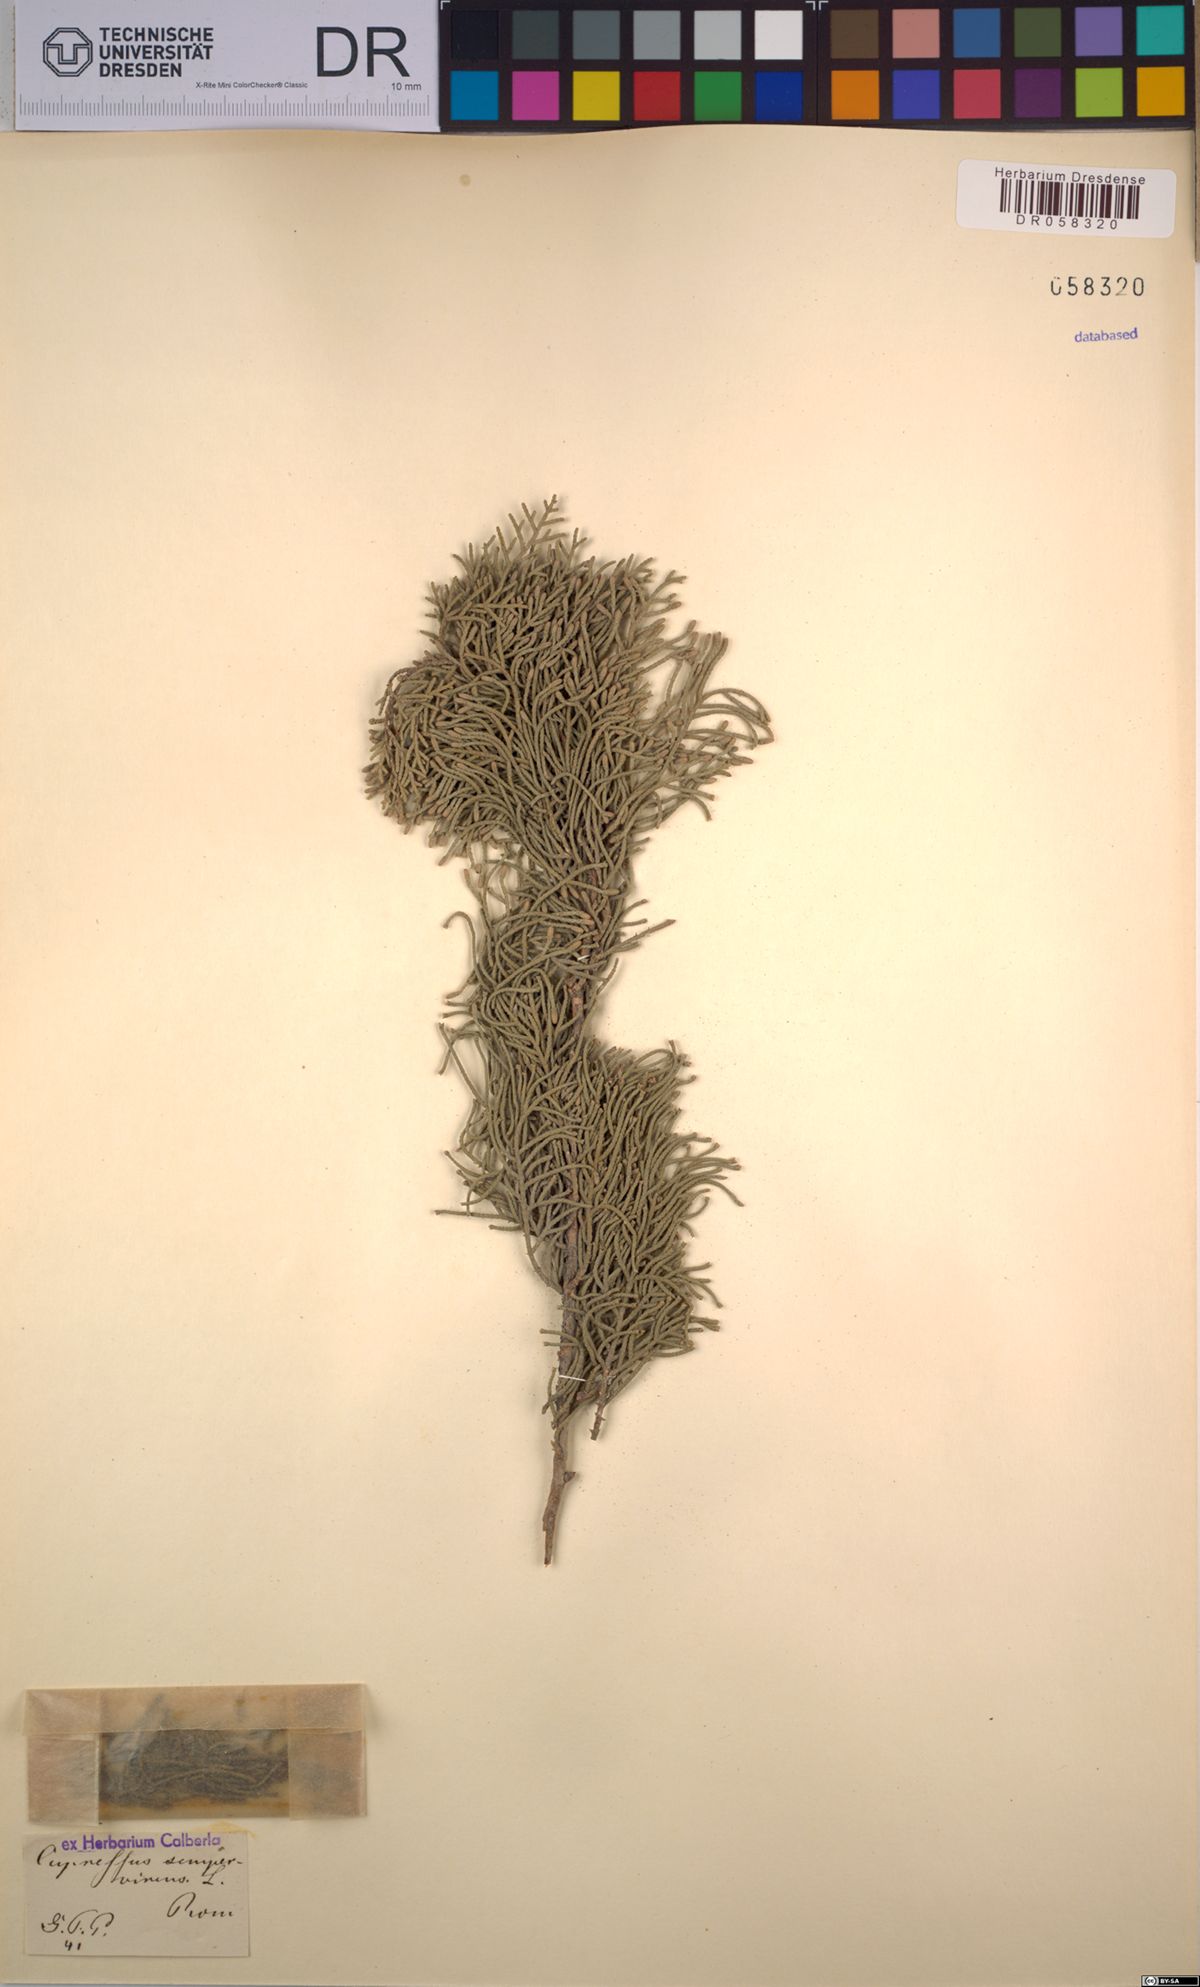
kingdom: Plantae
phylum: Tracheophyta
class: Pinopsida
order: Pinales
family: Cupressaceae
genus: Cupressus
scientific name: Cupressus sempervirens
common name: Italian cypress
